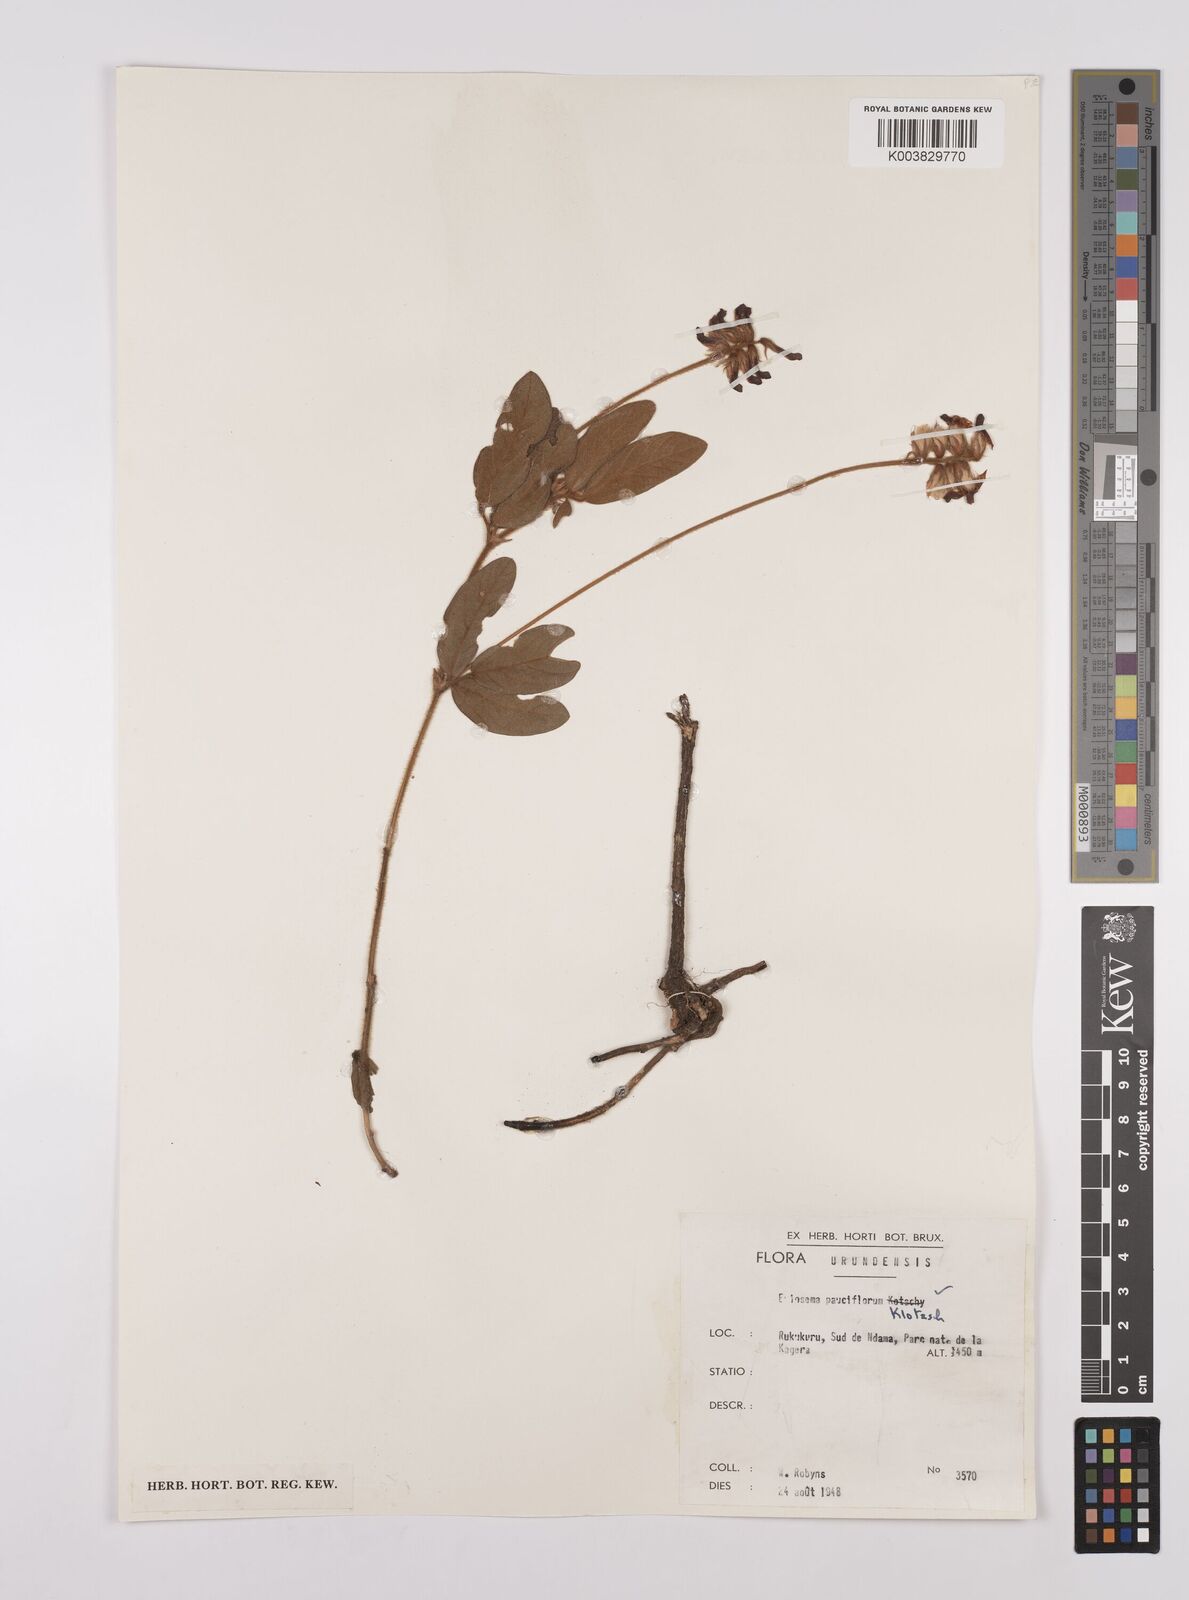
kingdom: Plantae
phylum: Tracheophyta
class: Magnoliopsida
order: Fabales
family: Fabaceae
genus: Eriosema
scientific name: Eriosema pauciflorum
